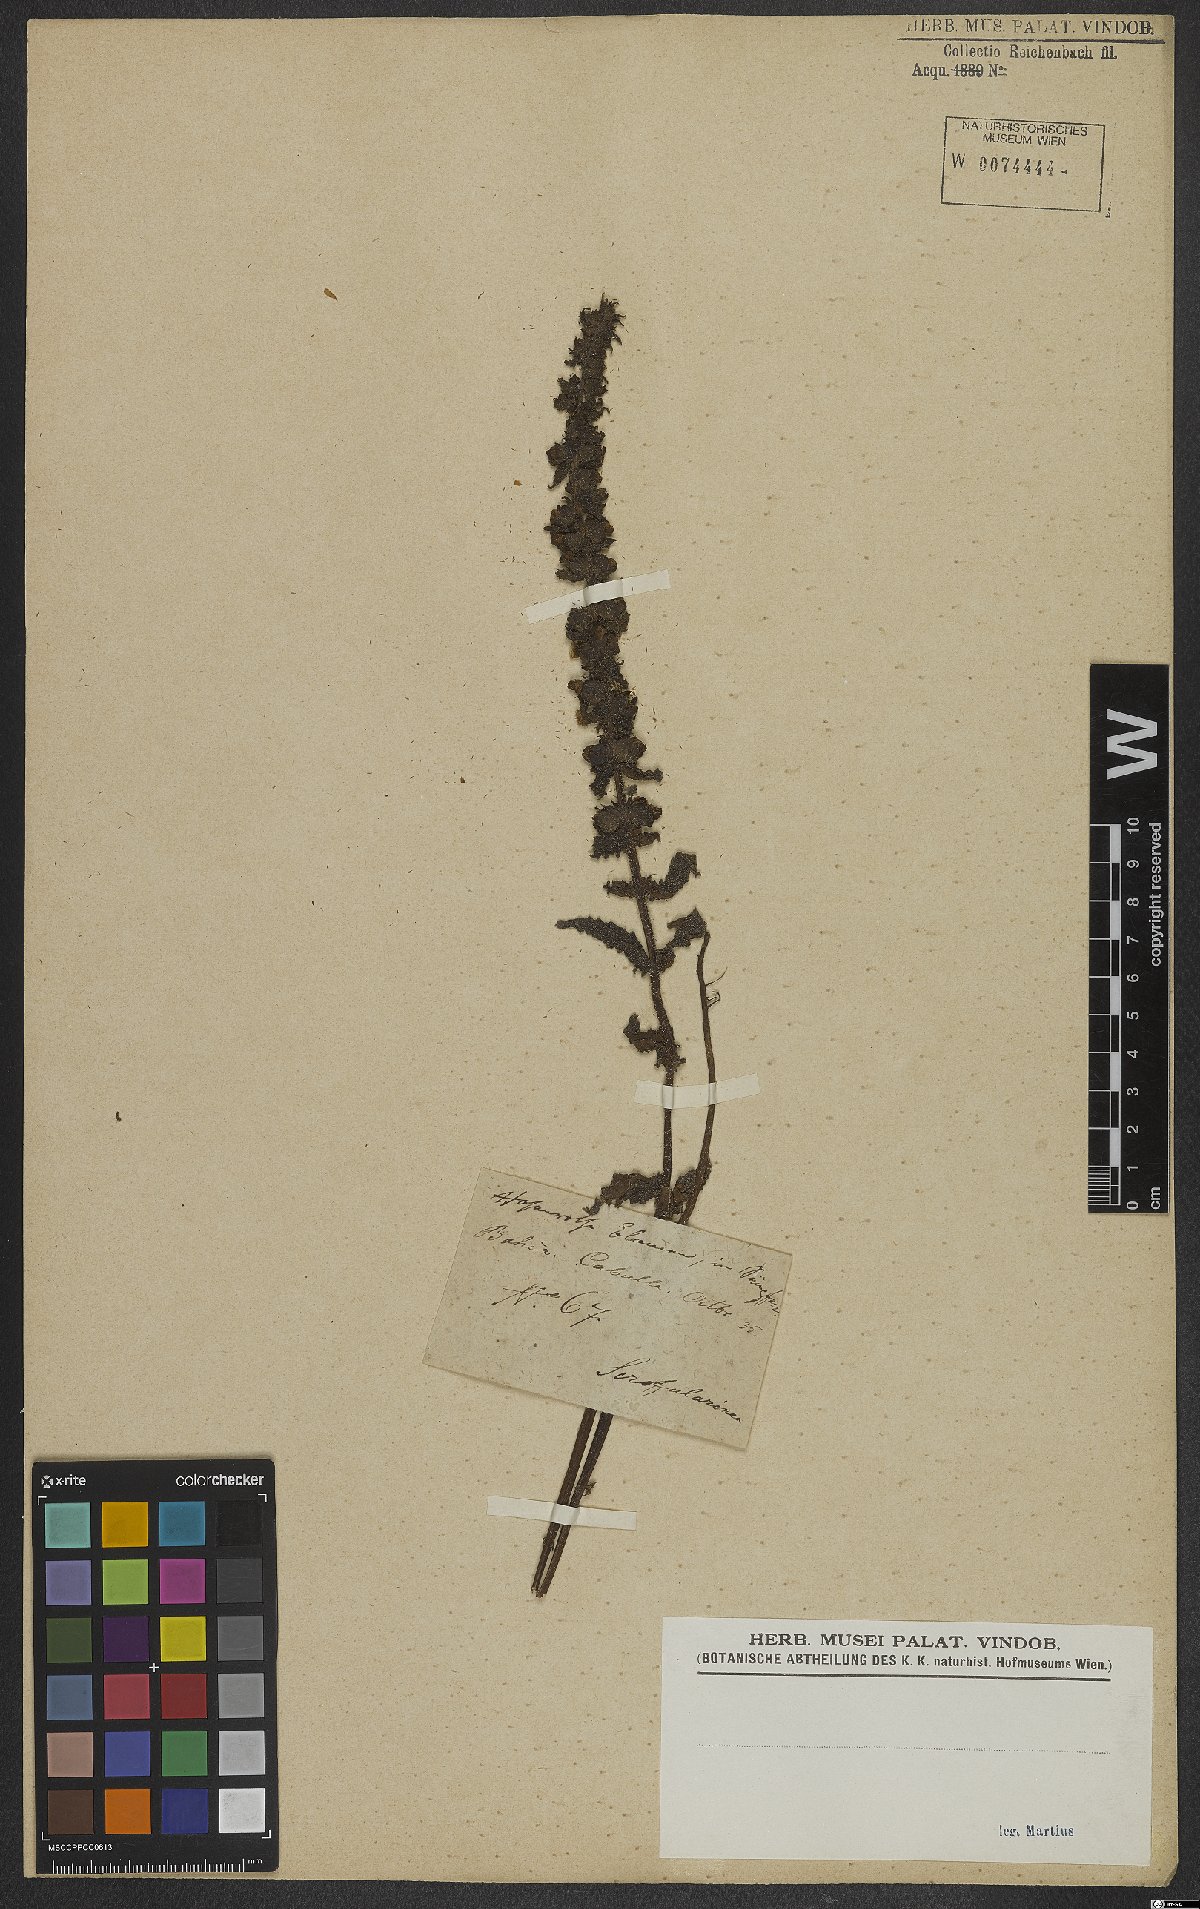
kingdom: Plantae
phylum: Tracheophyta
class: Magnoliopsida
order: Lamiales
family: Scrophulariaceae
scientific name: Scrophulariaceae
